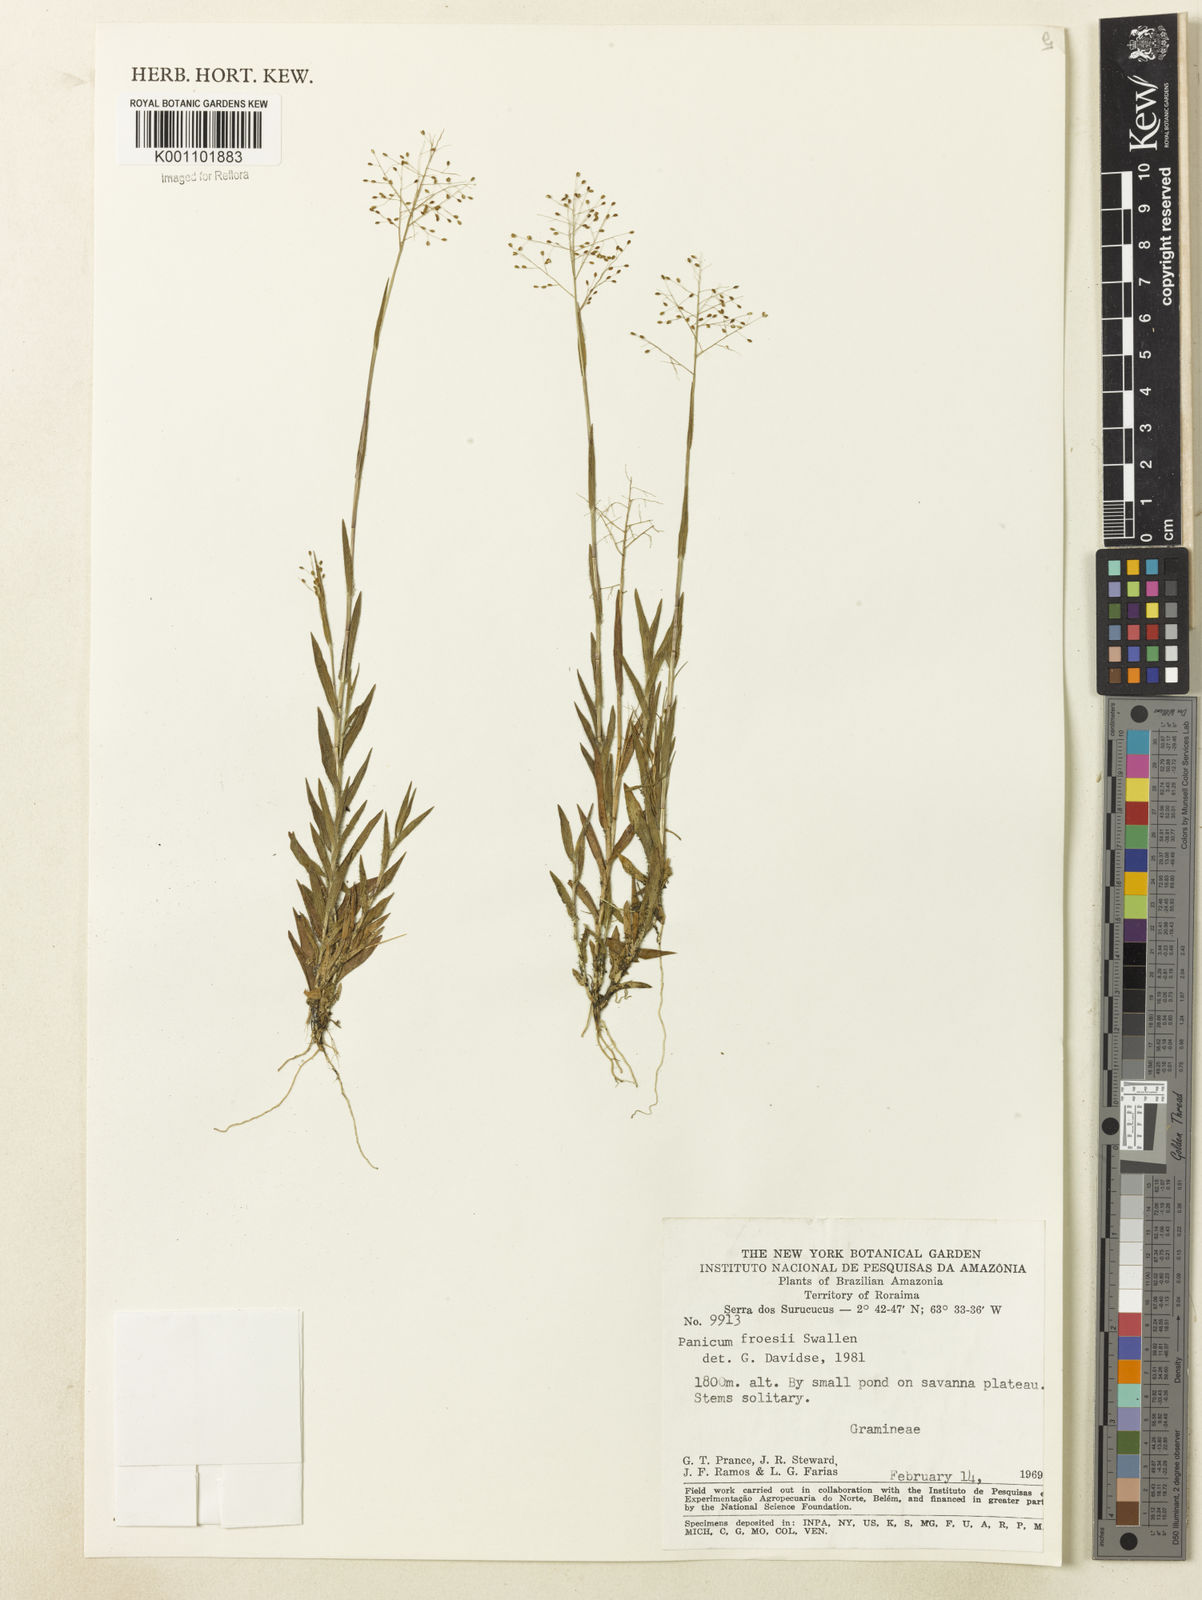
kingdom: Plantae
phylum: Tracheophyta
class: Liliopsida
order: Poales
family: Poaceae
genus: Trichanthecium
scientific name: Trichanthecium polycomum
